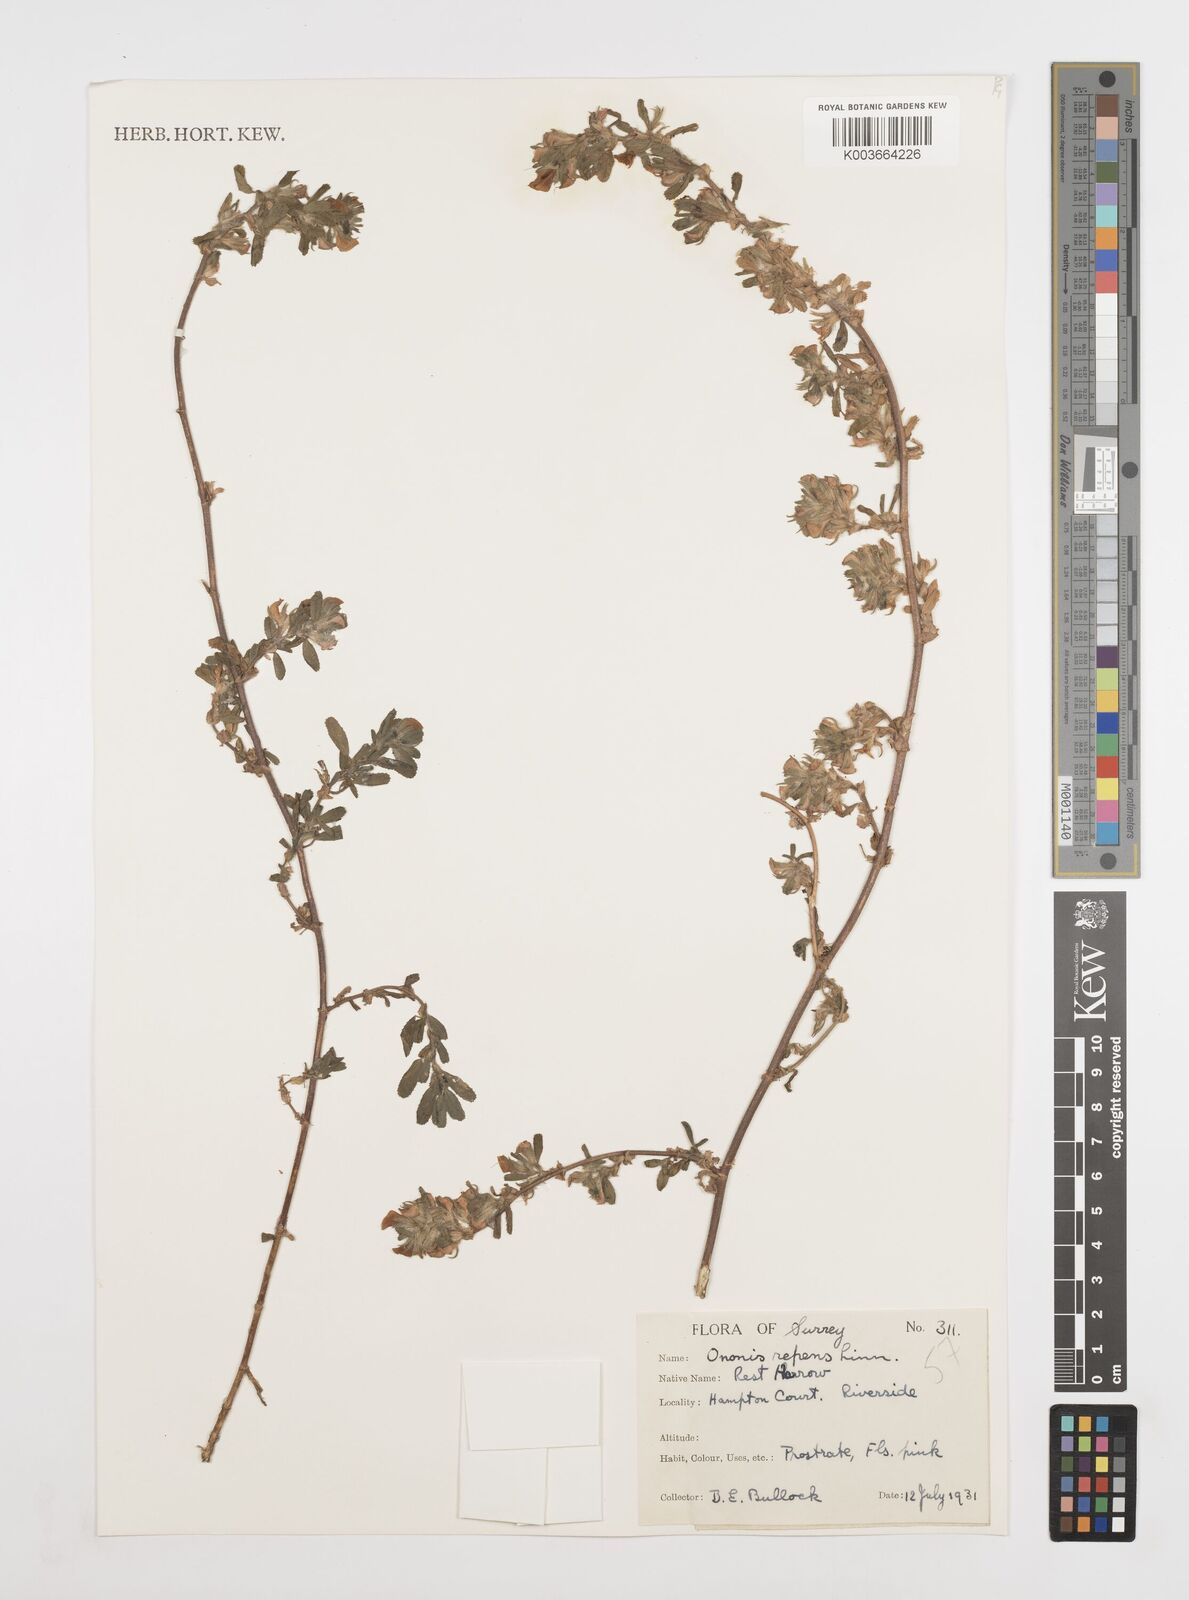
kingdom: Plantae
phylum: Tracheophyta
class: Magnoliopsida
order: Fabales
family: Fabaceae
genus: Ononis
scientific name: Ononis spinosa
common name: Spiny restharrow
